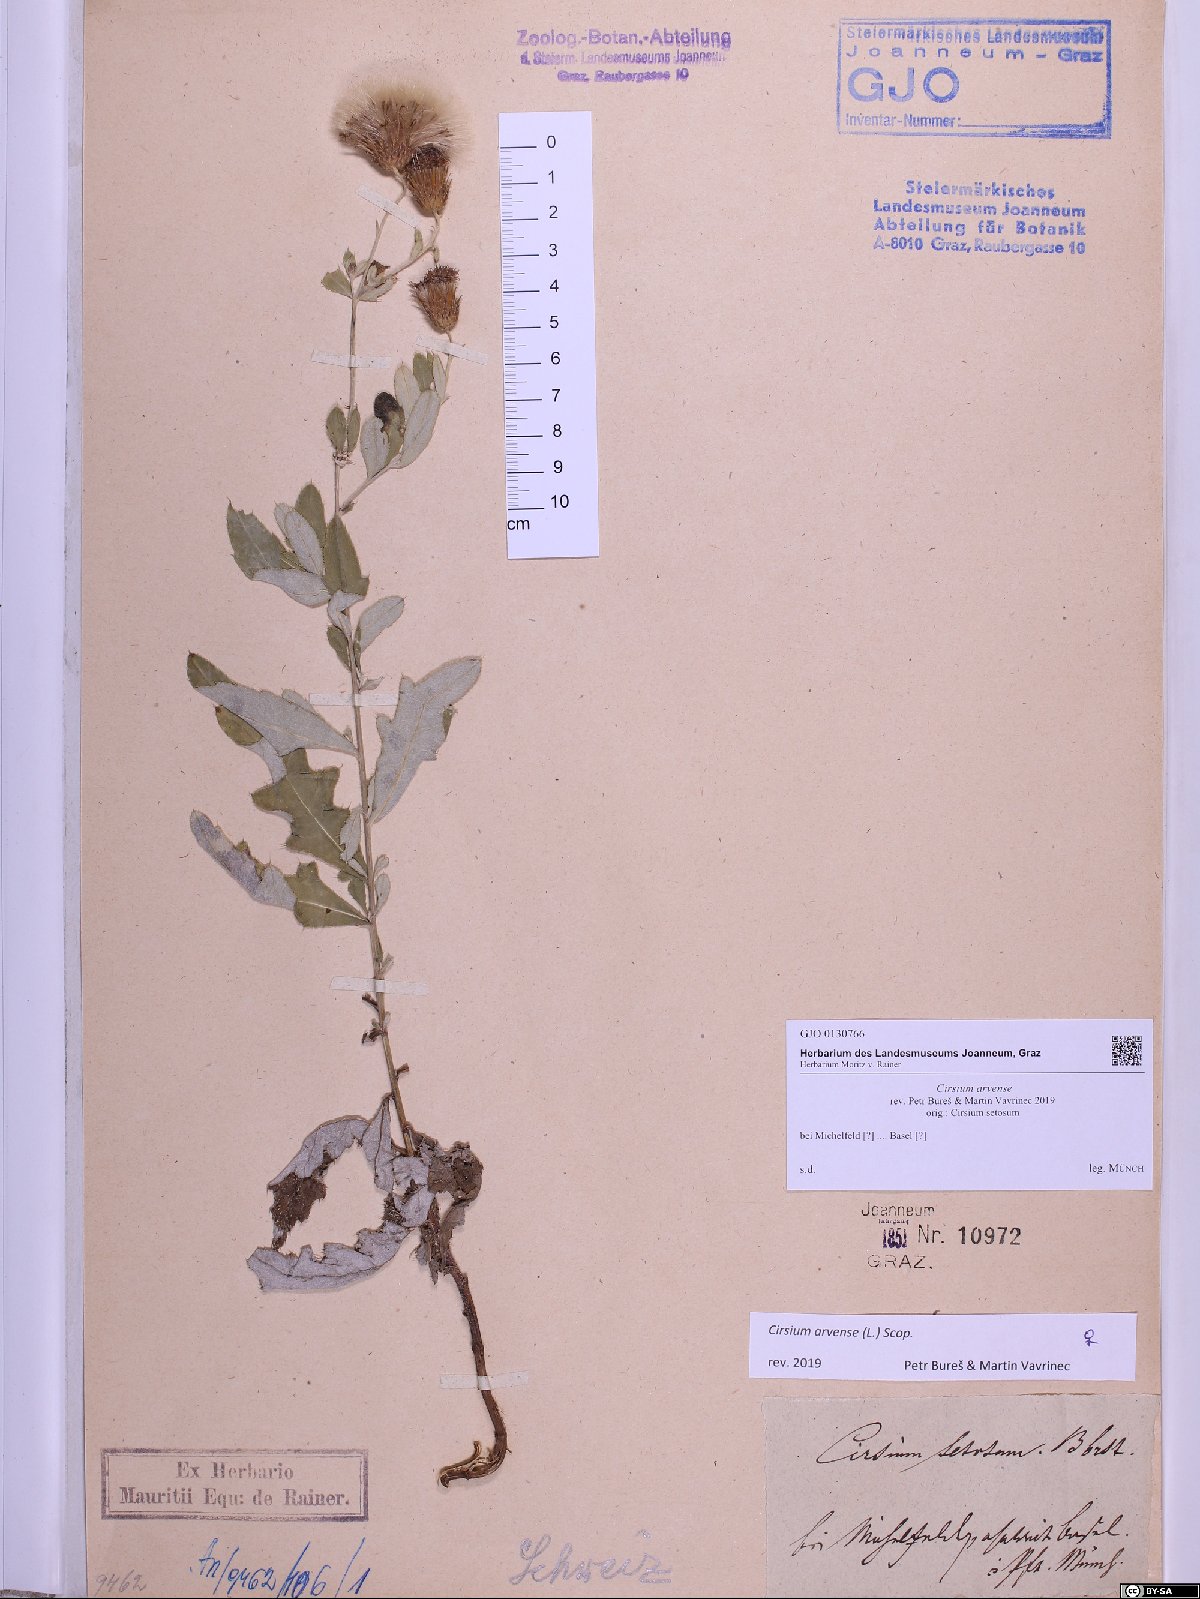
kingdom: Plantae
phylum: Tracheophyta
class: Magnoliopsida
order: Asterales
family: Asteraceae
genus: Cirsium
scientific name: Cirsium arvense
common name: Creeping thistle
